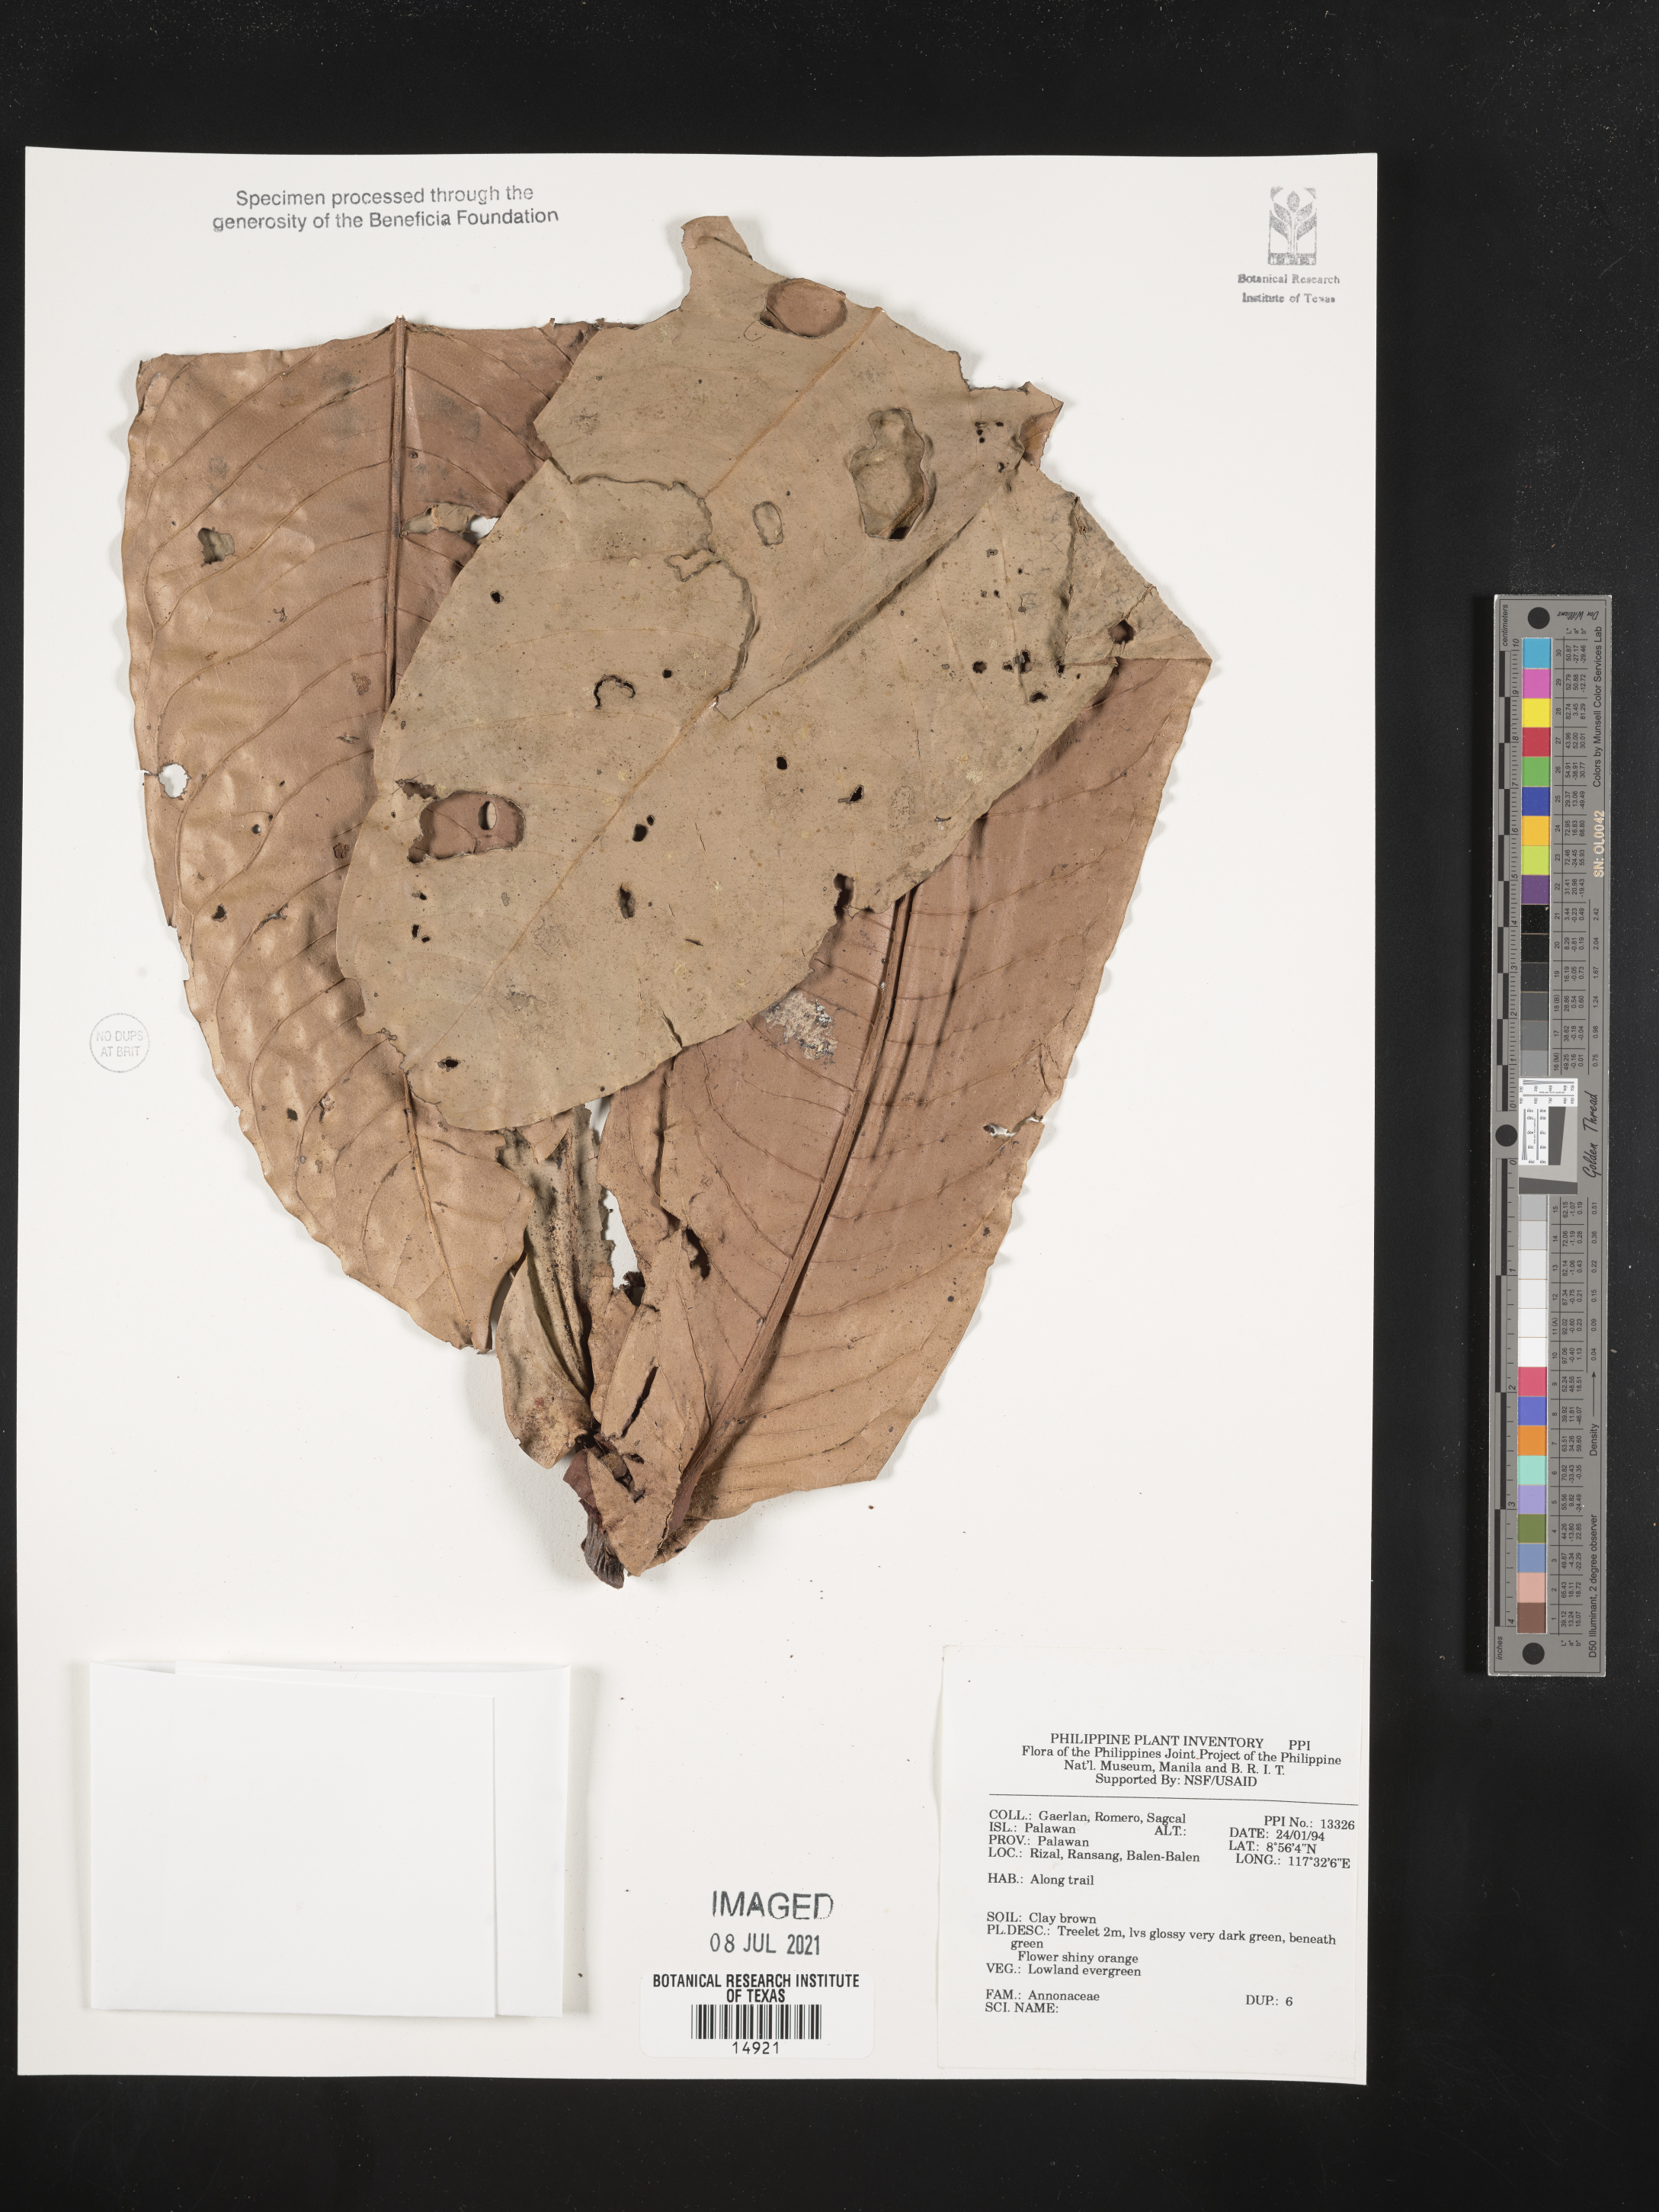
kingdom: Plantae
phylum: Tracheophyta
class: Magnoliopsida
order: Magnoliales
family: Annonaceae
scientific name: Annonaceae
